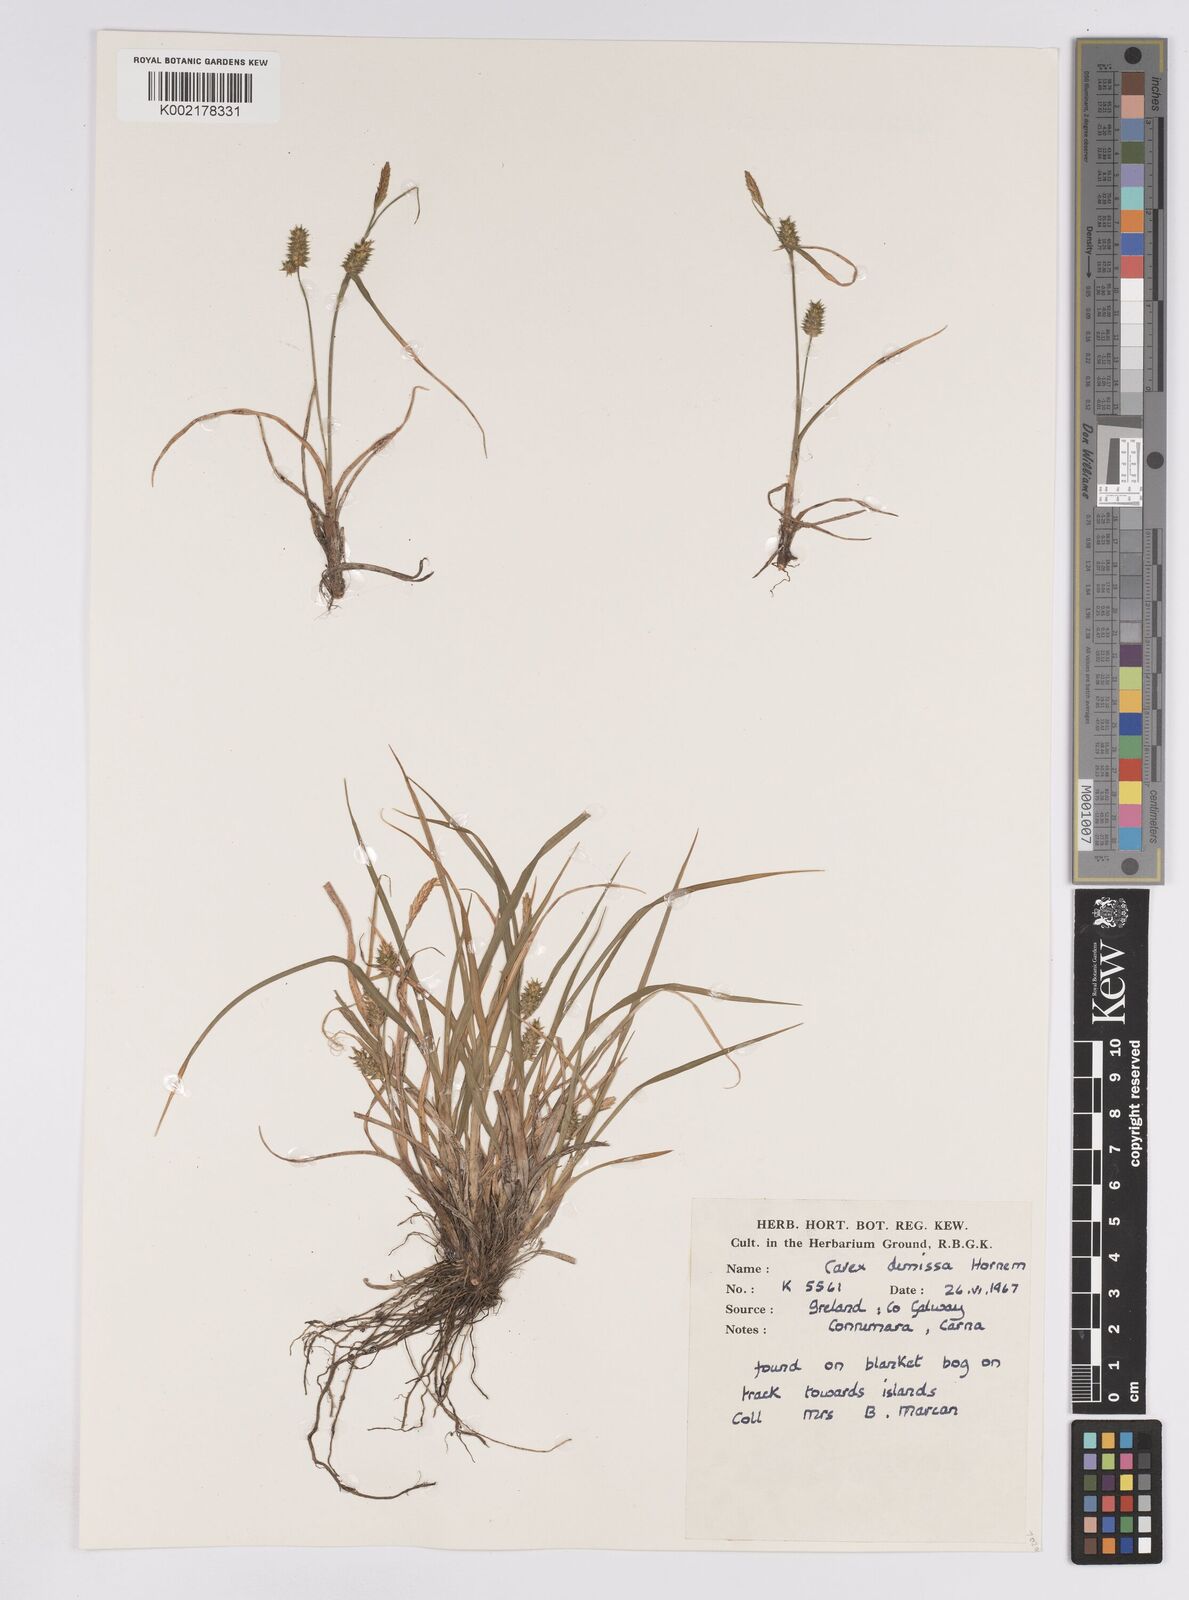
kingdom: Plantae
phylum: Tracheophyta
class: Liliopsida
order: Poales
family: Cyperaceae
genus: Carex
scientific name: Carex demissa
